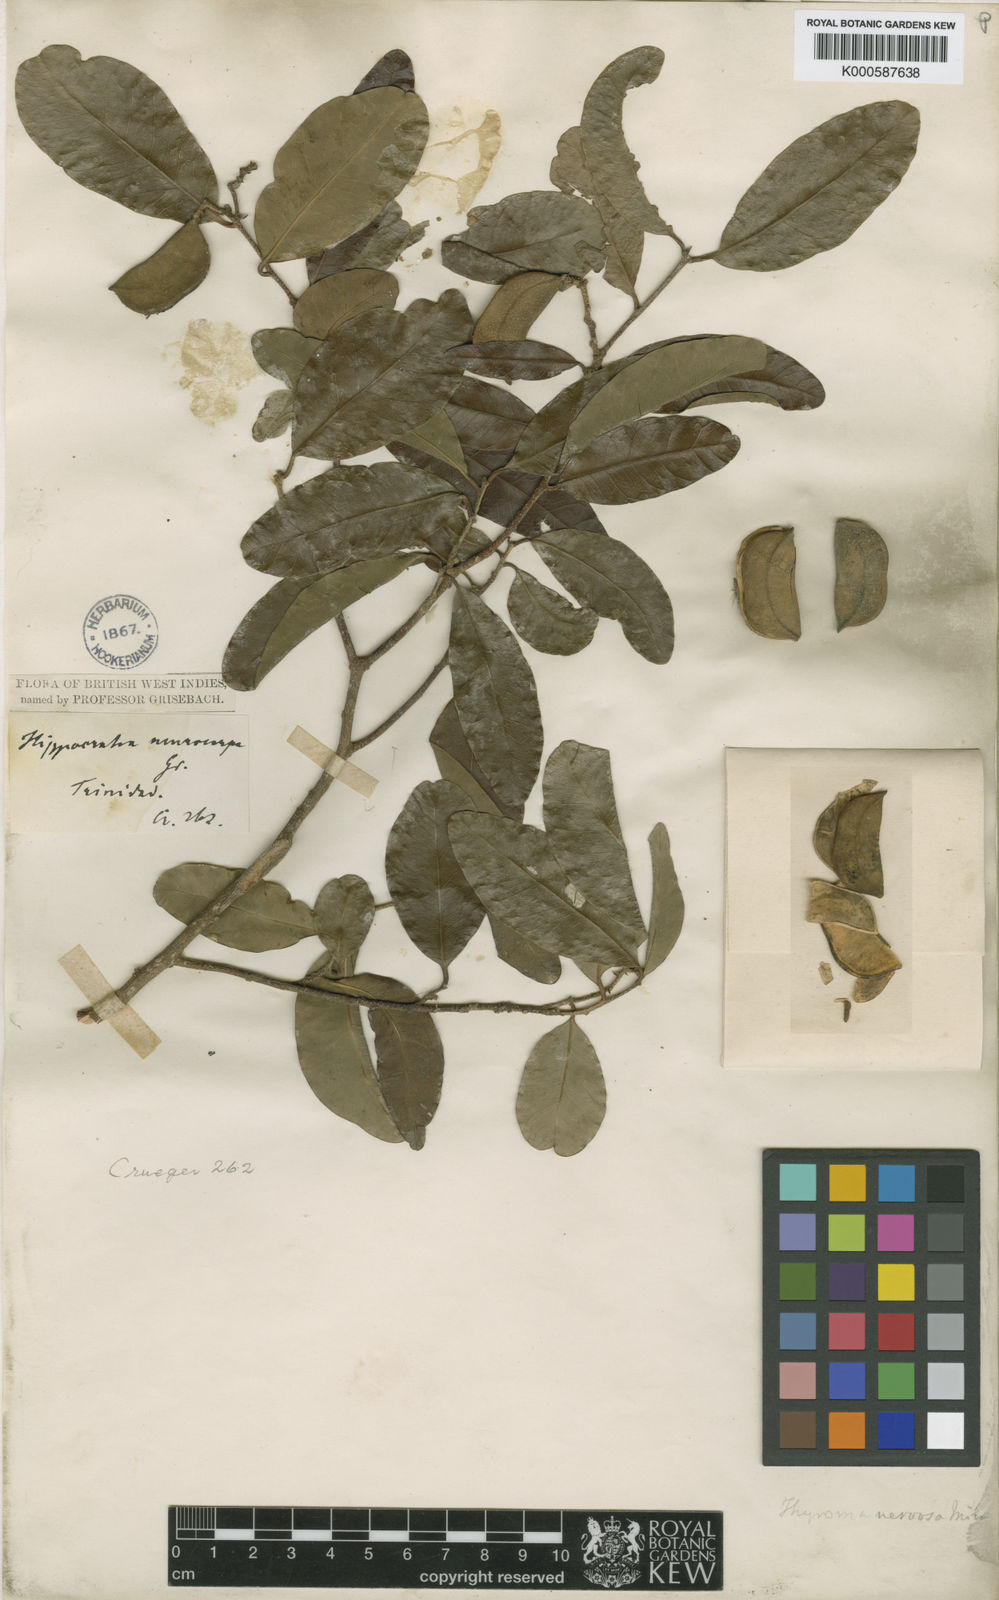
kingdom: Plantae
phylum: Tracheophyta
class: Magnoliopsida
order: Gentianales
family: Apocynaceae
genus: Aspidosperma
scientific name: Aspidosperma cuspa
